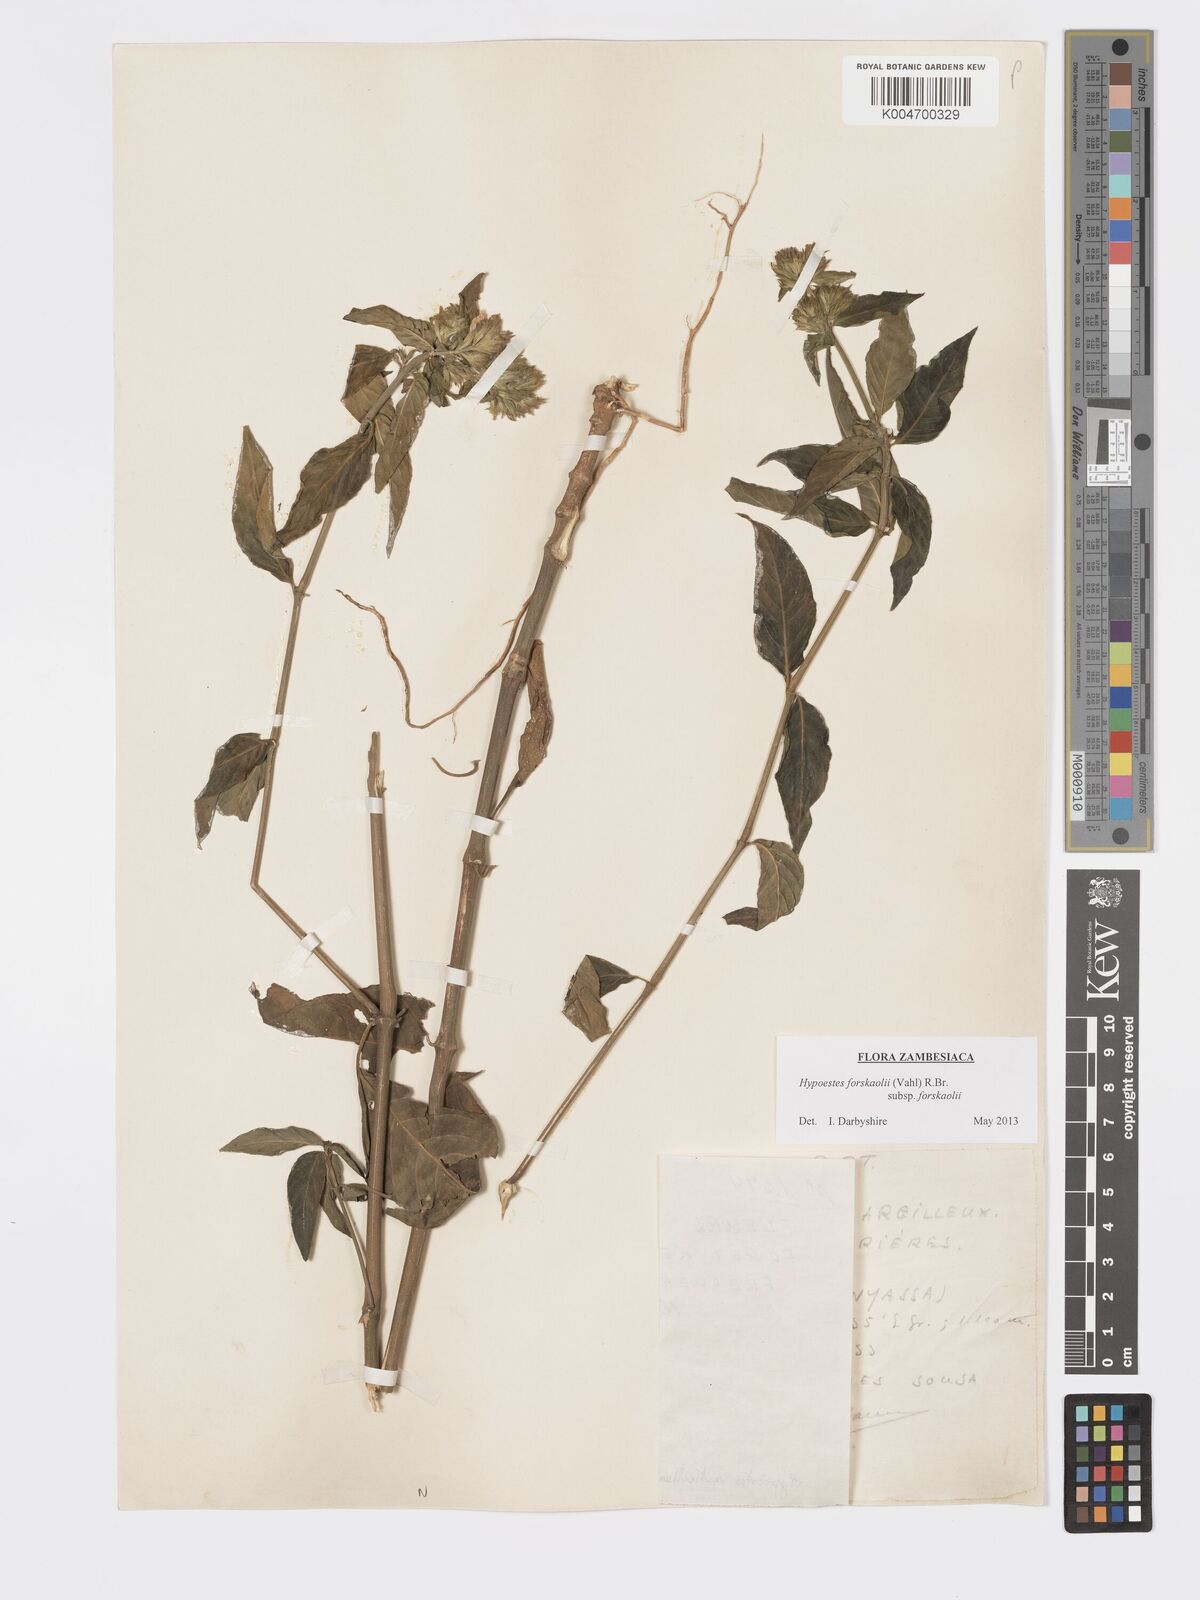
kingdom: Plantae
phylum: Tracheophyta
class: Magnoliopsida
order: Lamiales
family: Acanthaceae
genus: Hypoestes
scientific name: Hypoestes forskaolii
